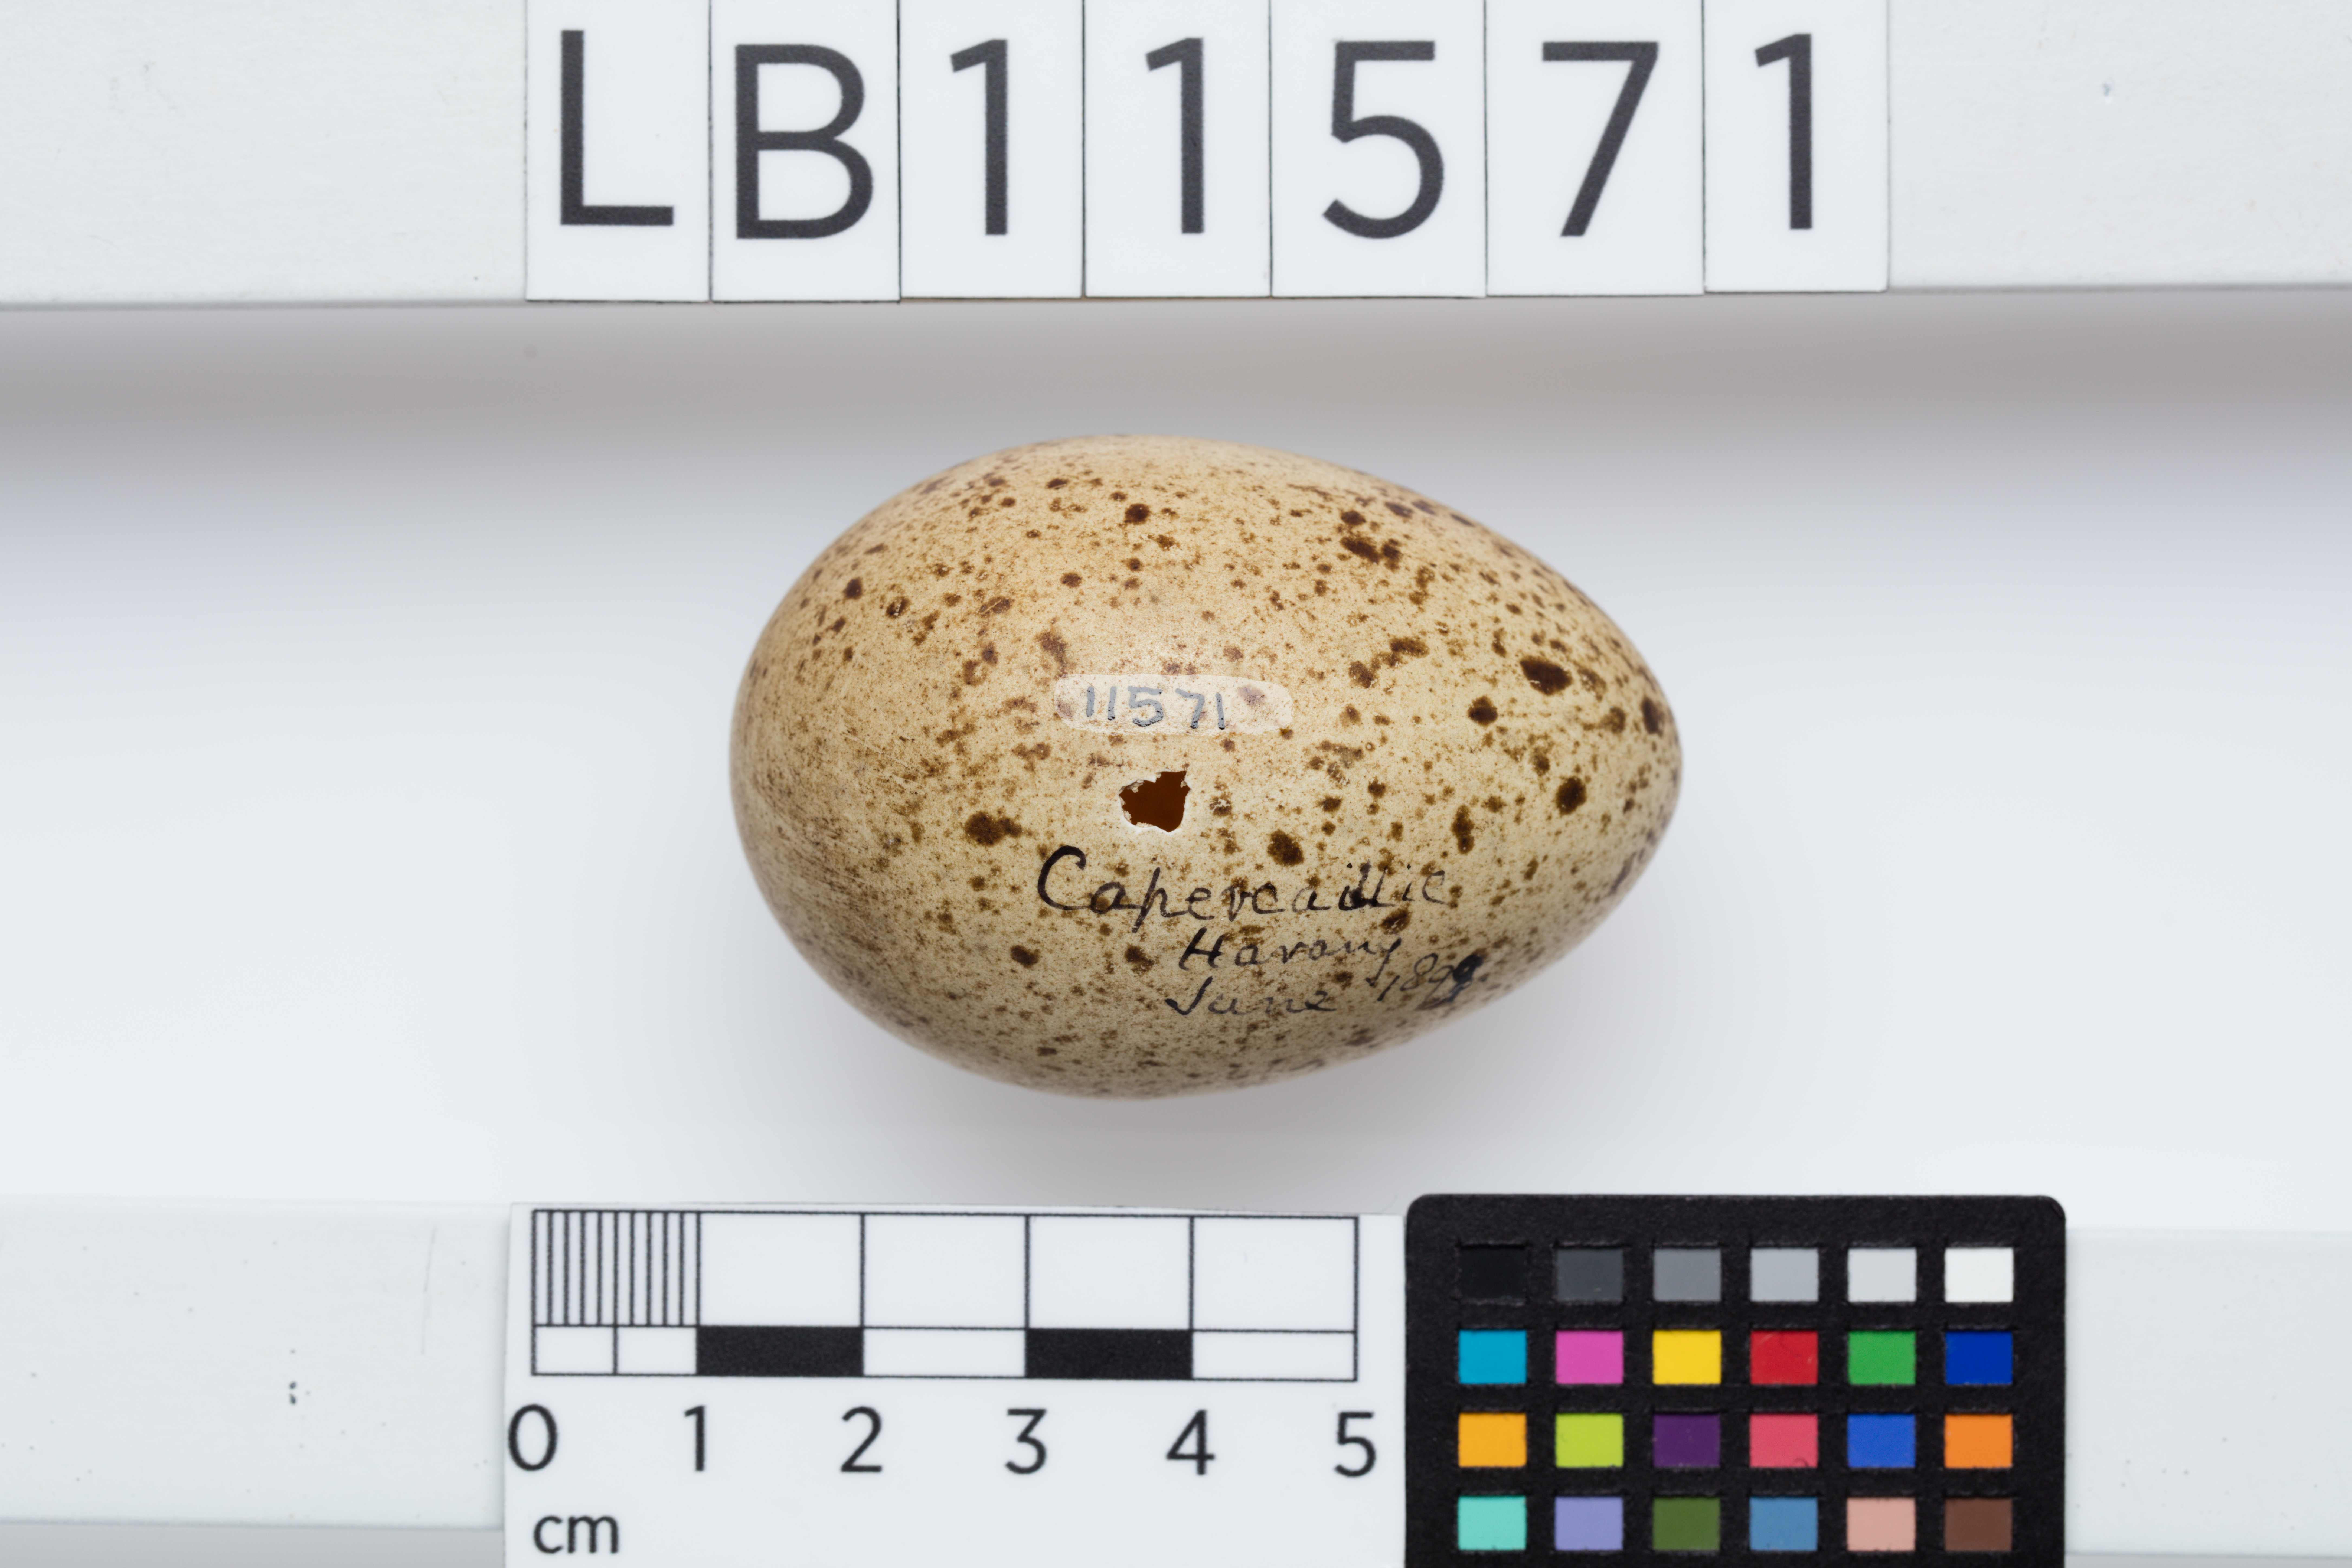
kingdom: Animalia
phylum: Chordata
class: Aves
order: Galliformes
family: Phasianidae
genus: Tetrao
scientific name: Tetrao urogallus
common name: Western capercaillie
